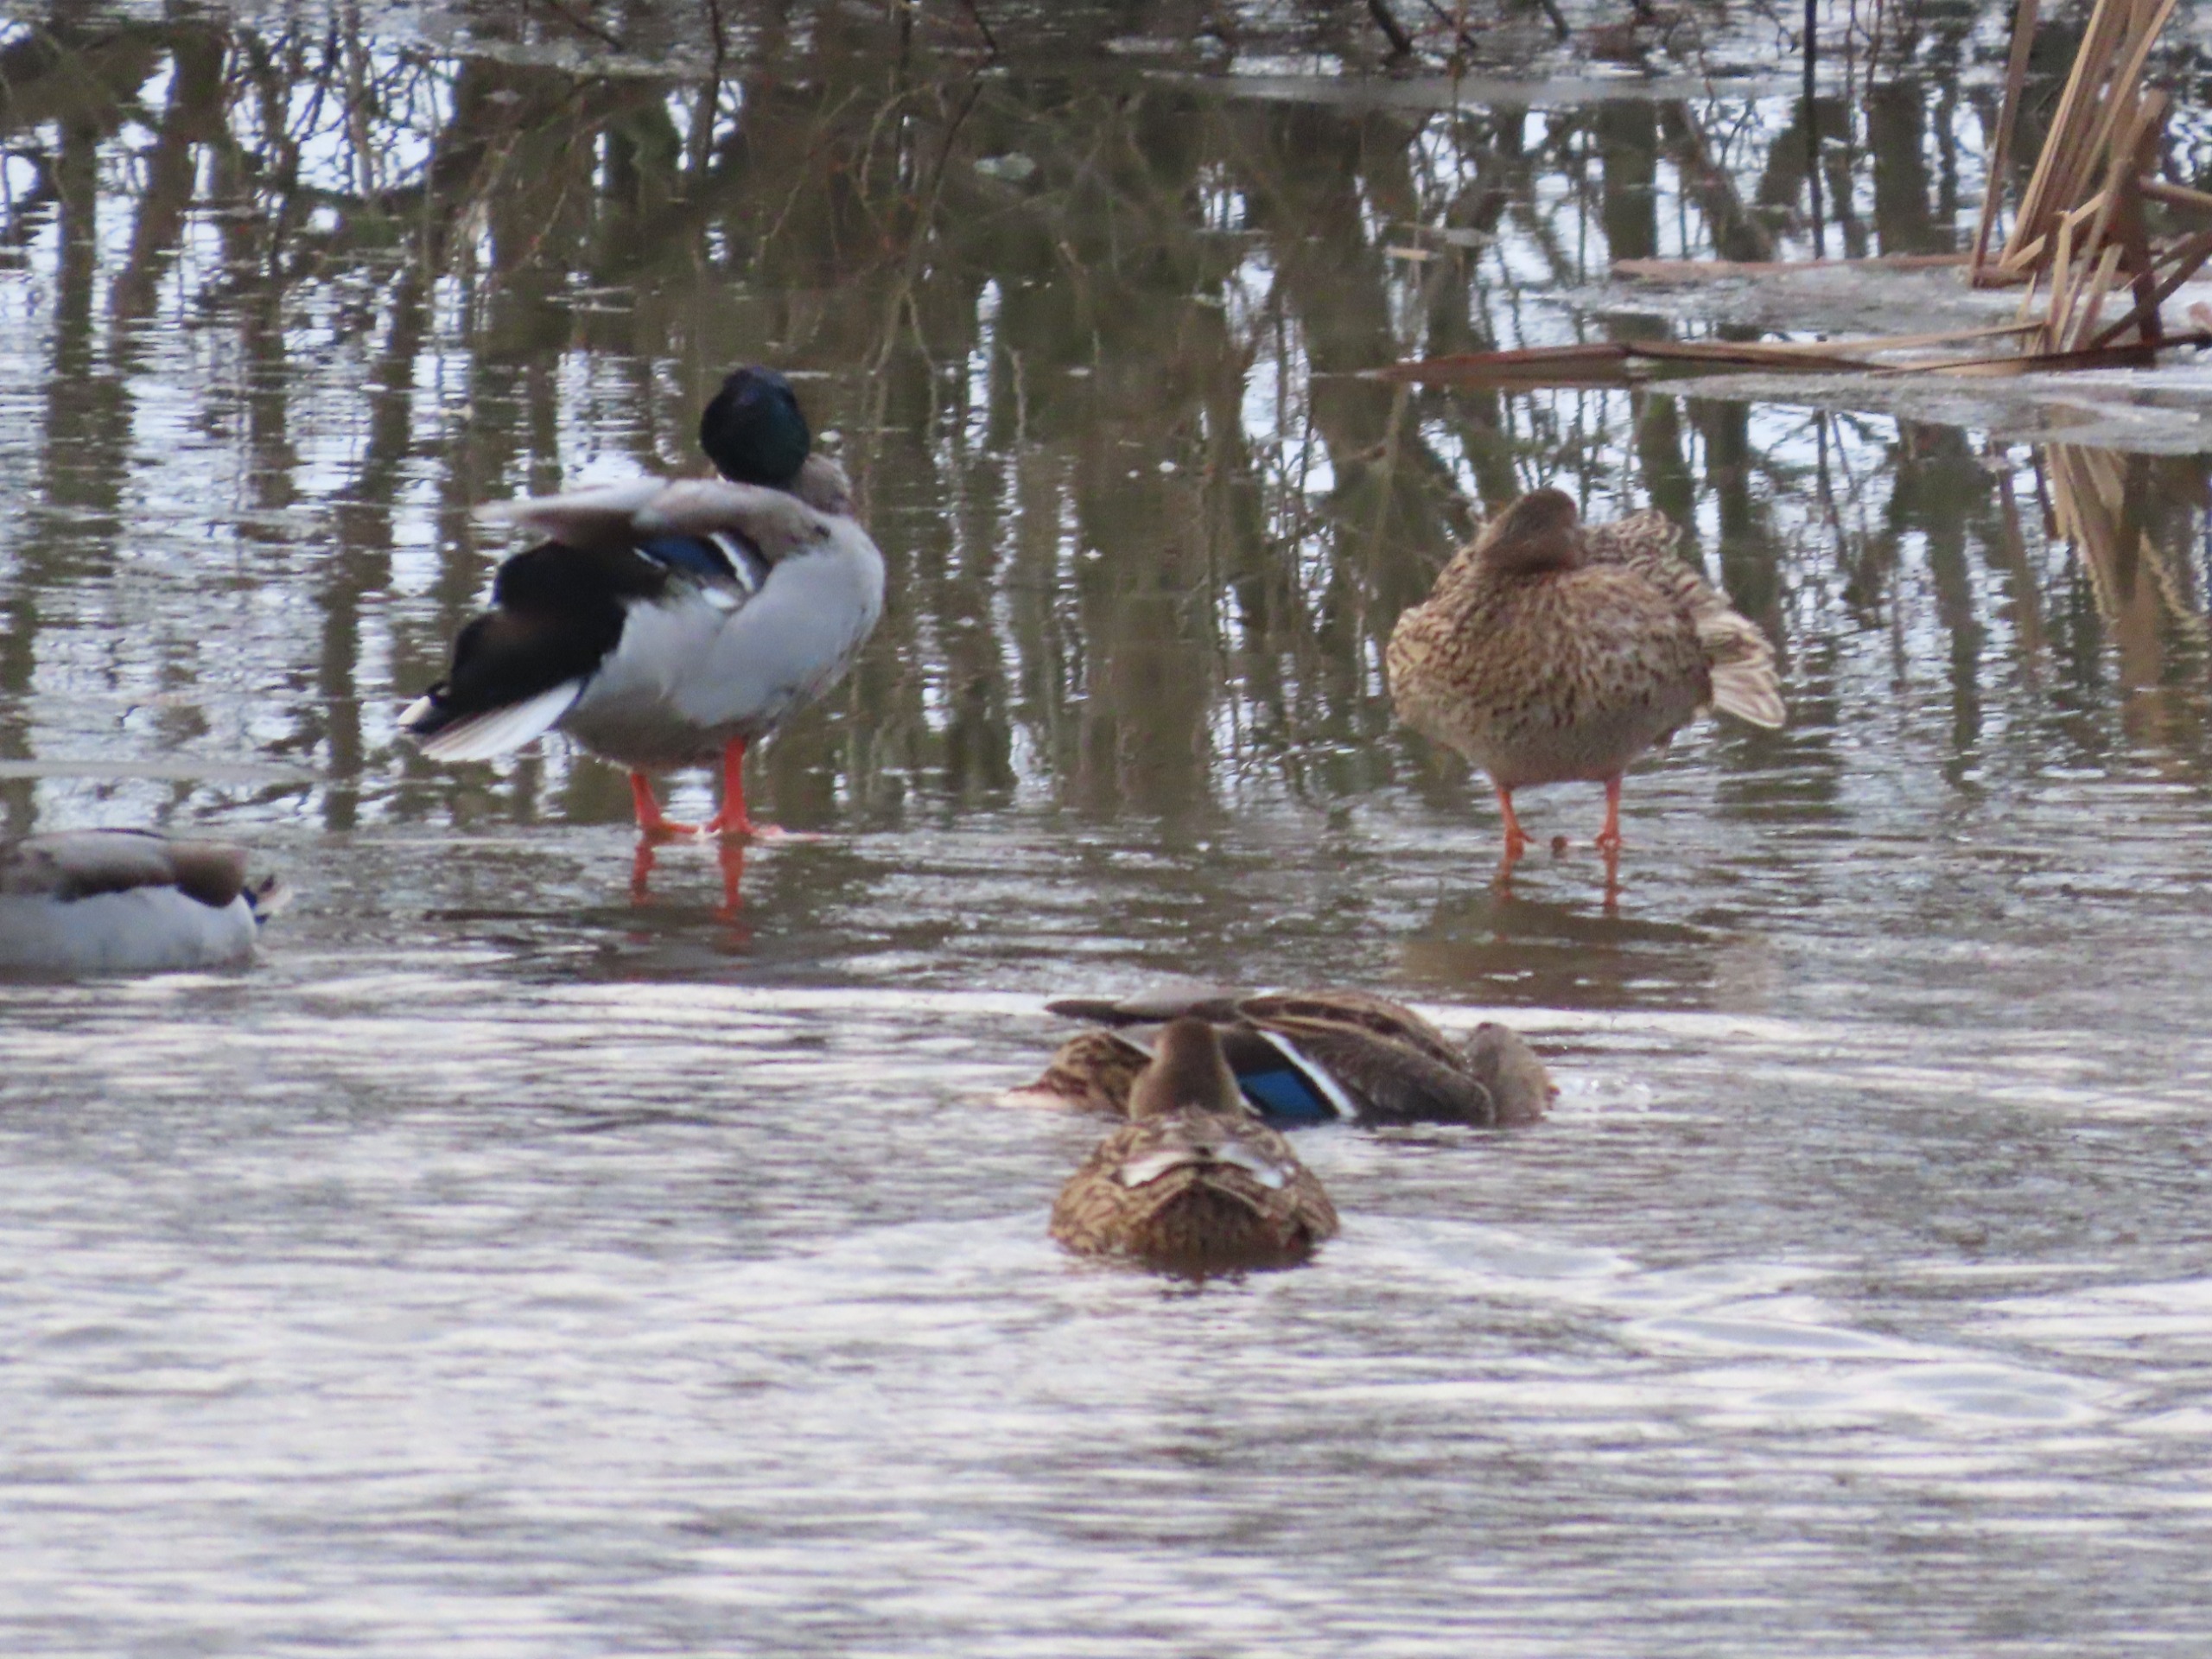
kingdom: Animalia
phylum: Chordata
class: Aves
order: Anseriformes
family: Anatidae
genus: Anas
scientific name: Anas platyrhynchos
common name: Gråand
